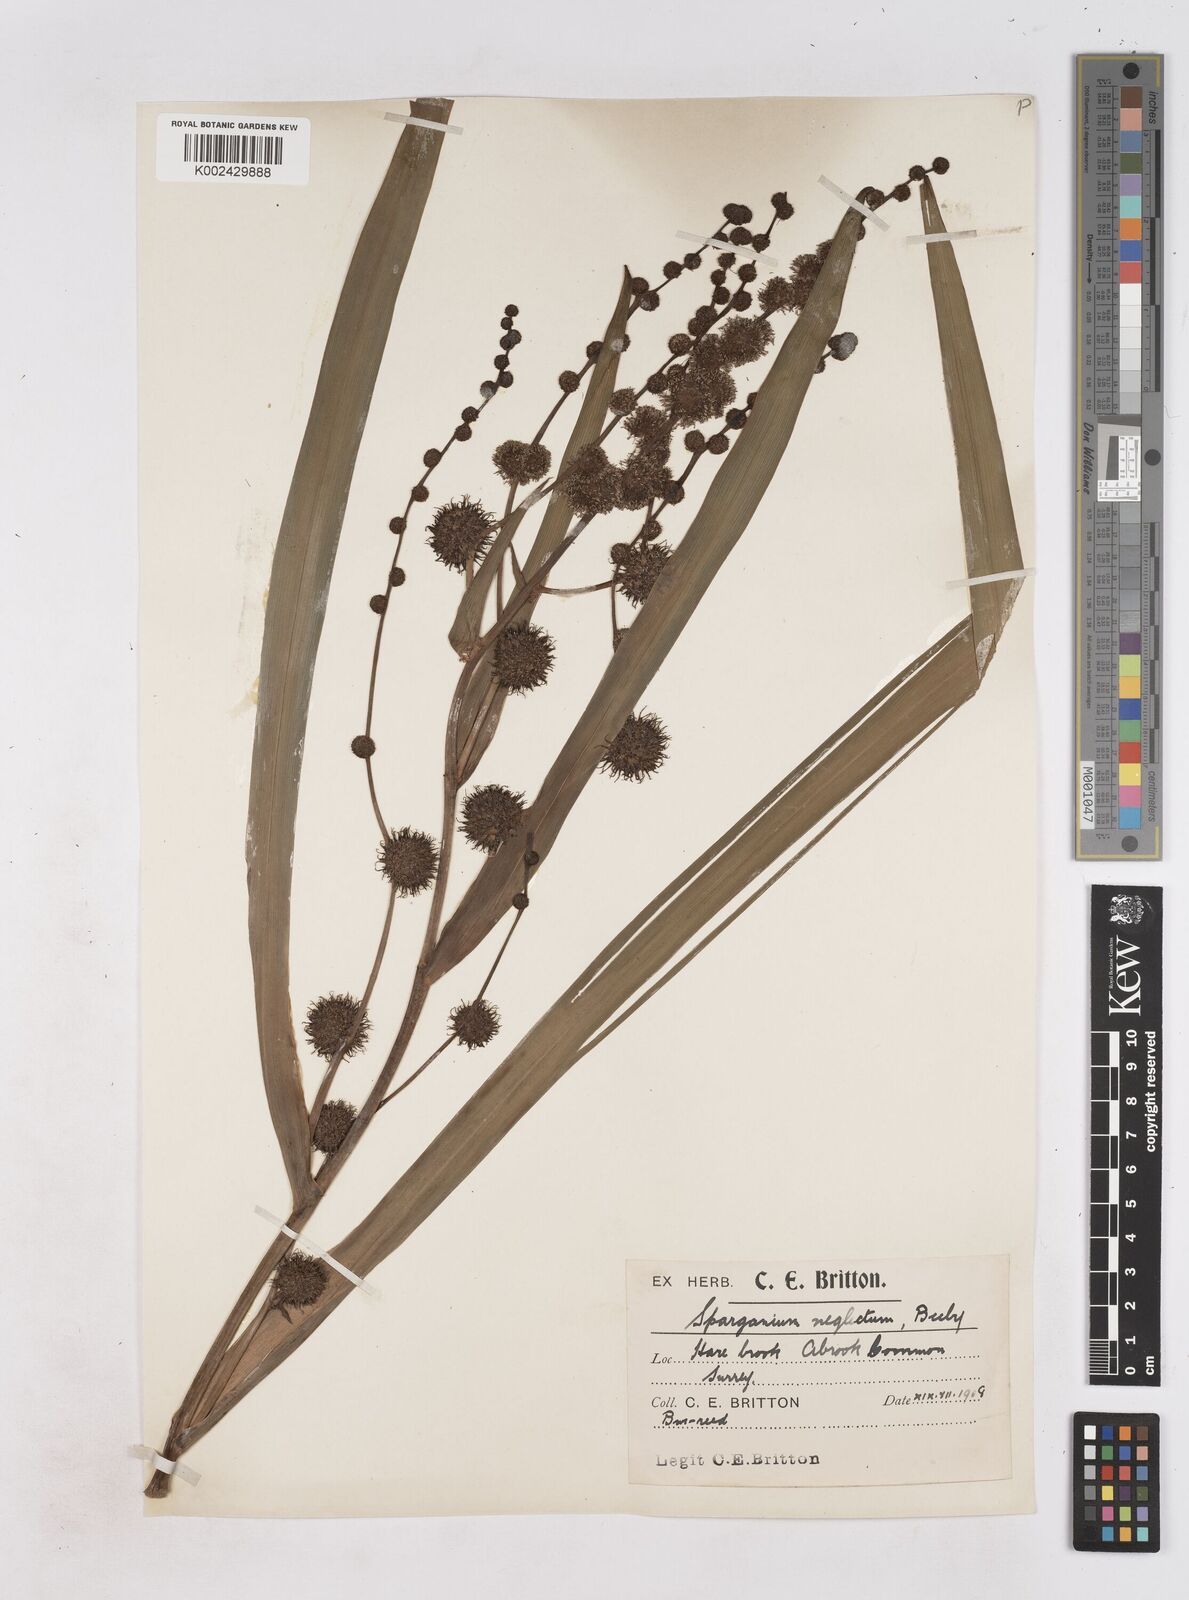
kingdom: Plantae
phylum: Tracheophyta
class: Liliopsida
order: Poales
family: Typhaceae
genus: Sparganium
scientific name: Sparganium erectum
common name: Branched bur-reed
